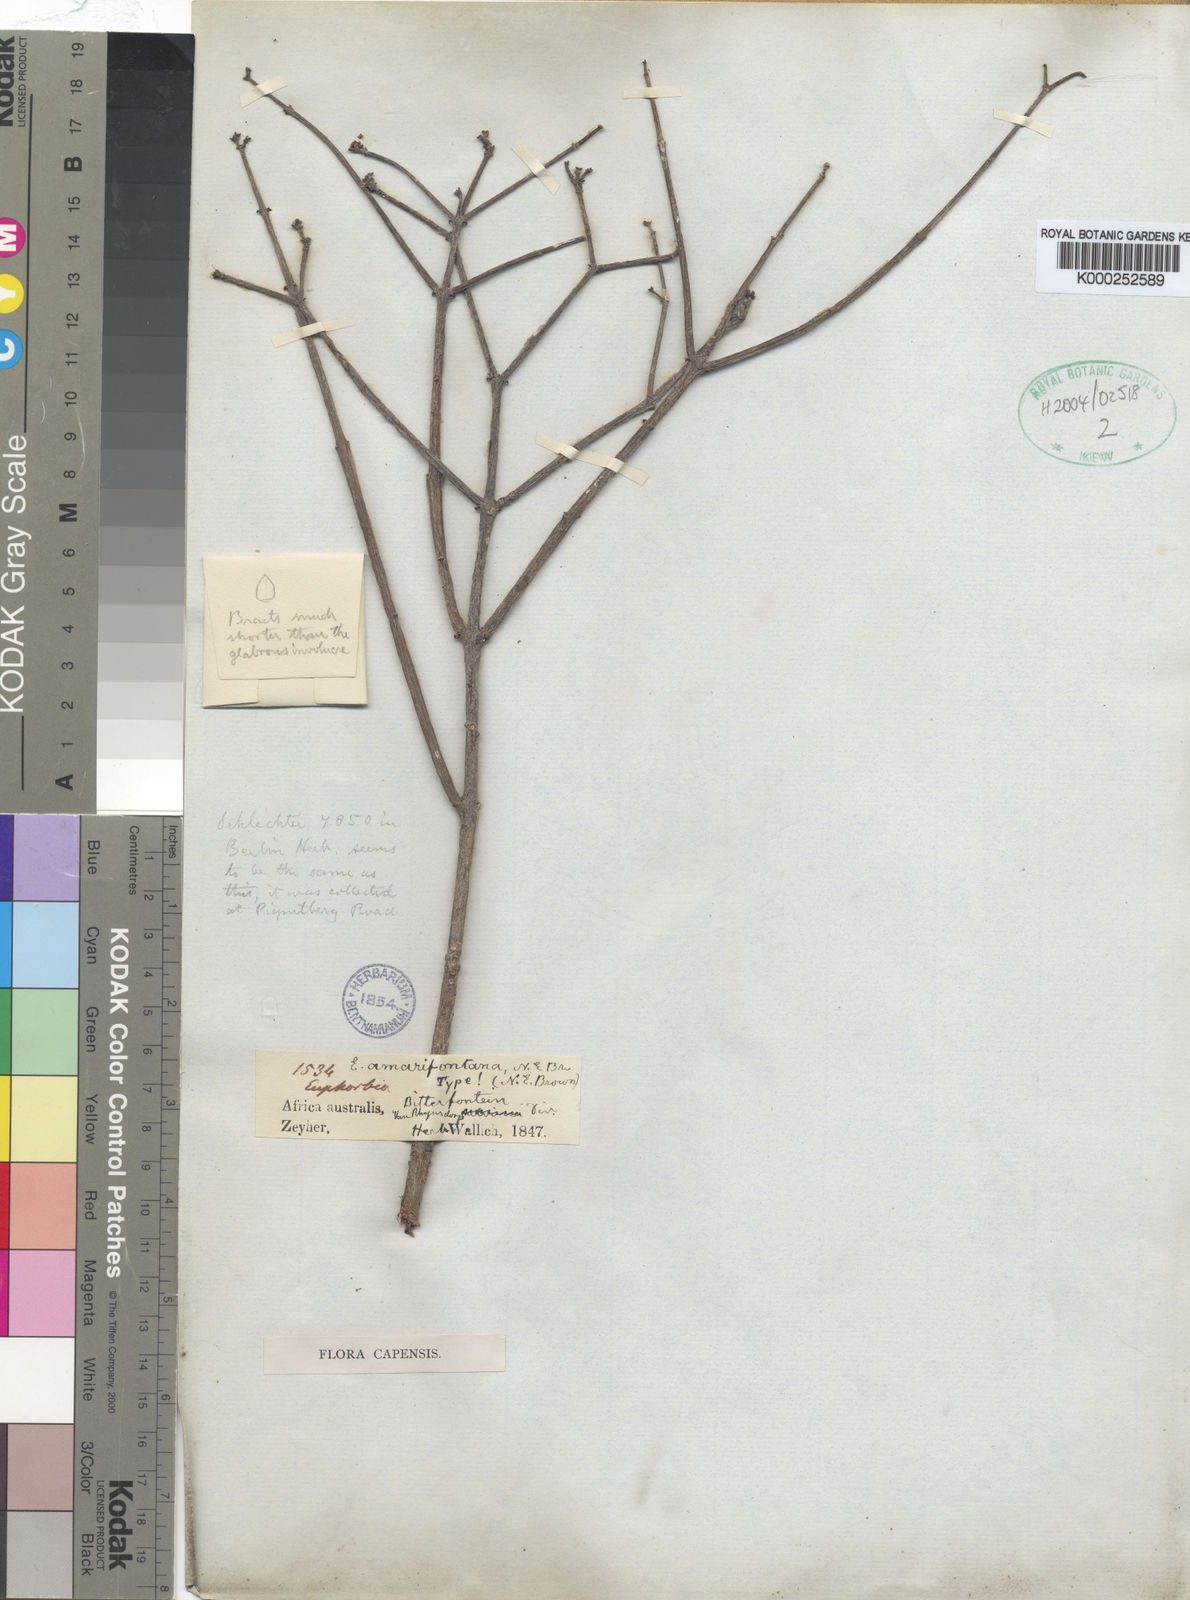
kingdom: Plantae
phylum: Tracheophyta
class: Magnoliopsida
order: Malpighiales
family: Euphorbiaceae
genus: Euphorbia
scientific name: Euphorbia rhombifolia
